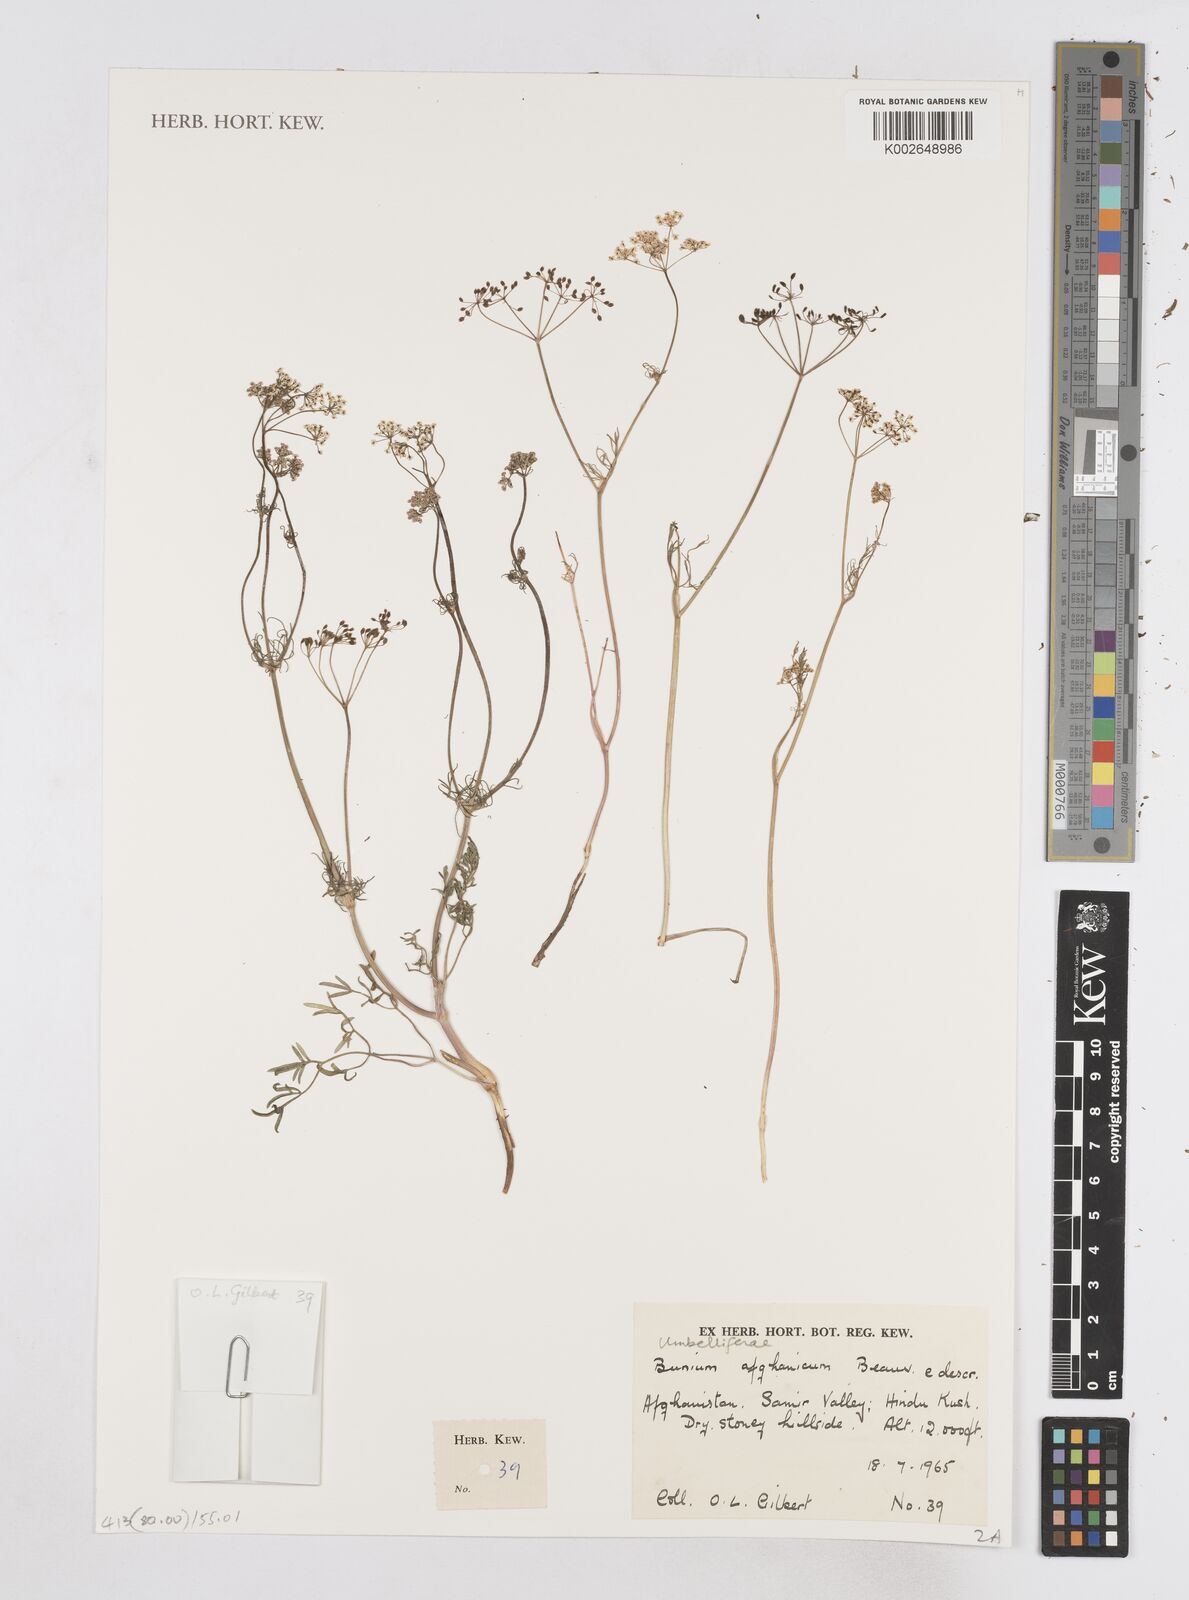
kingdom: Plantae
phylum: Tracheophyta
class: Magnoliopsida
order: Apiales
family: Apiaceae
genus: Elwendia
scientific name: Elwendia afghanica
